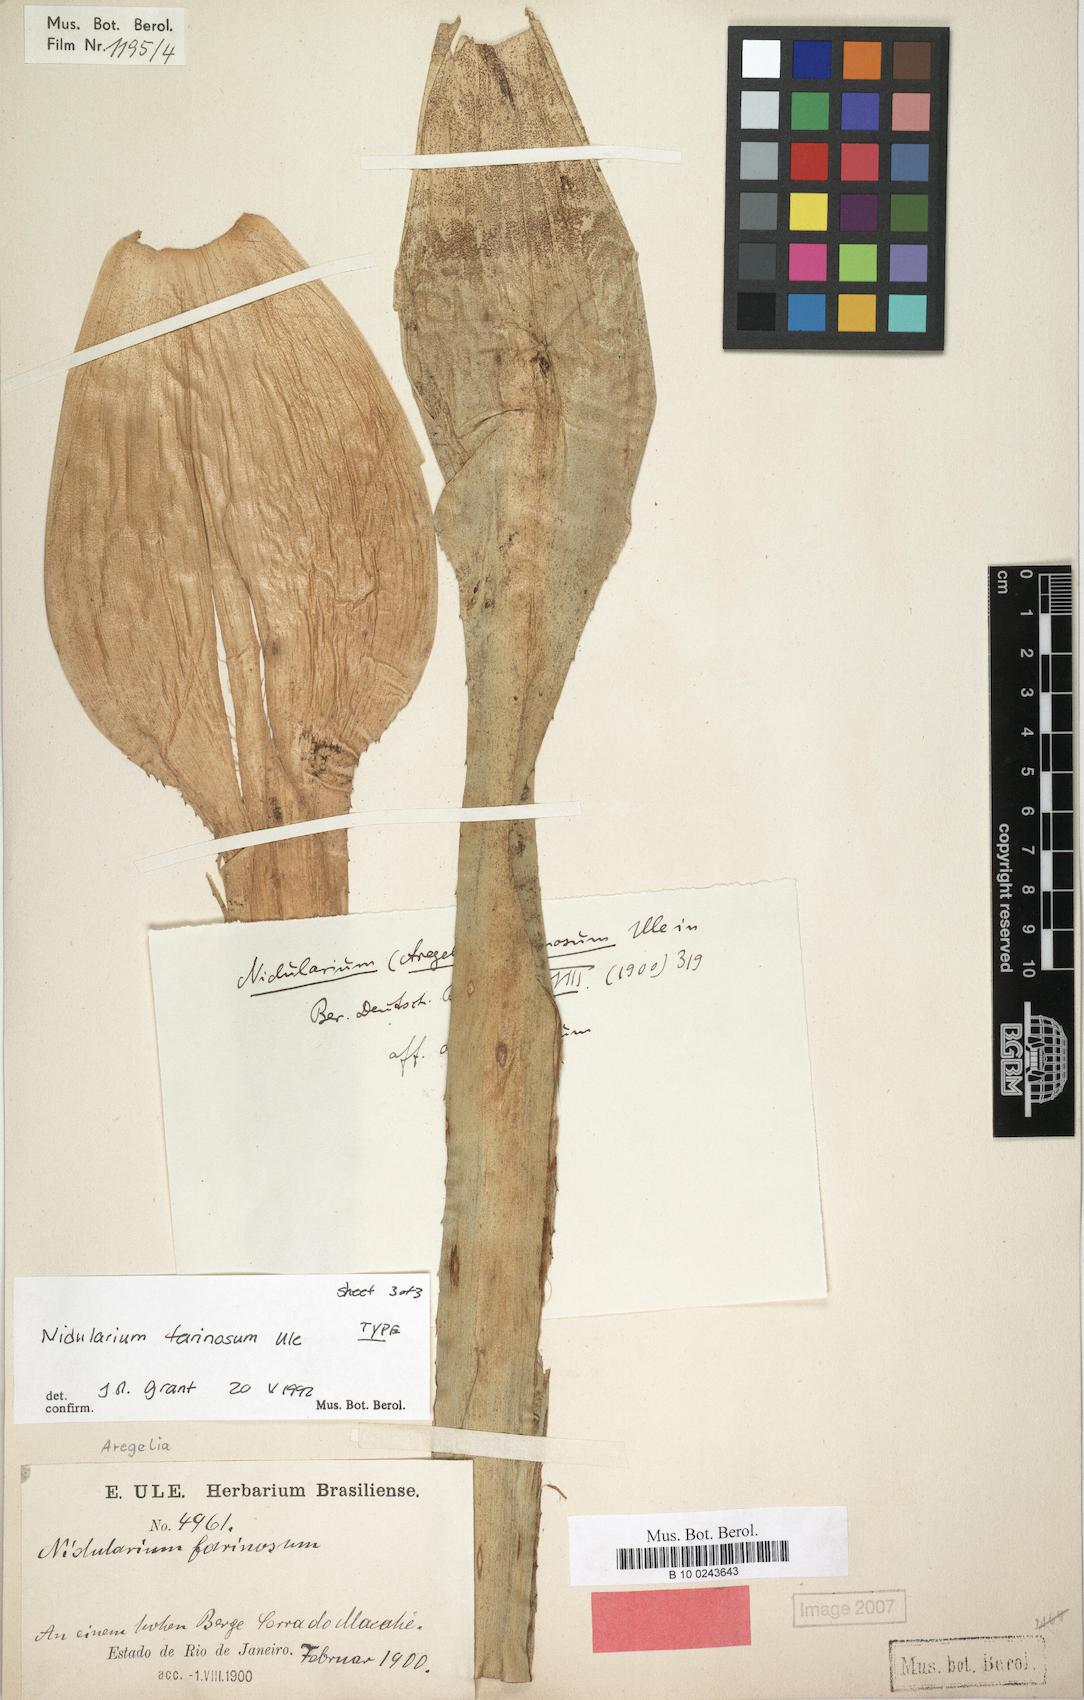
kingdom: Plantae
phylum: Tracheophyta
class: Liliopsida
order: Poales
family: Bromeliaceae
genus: Neoregelia
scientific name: Neoregelia farinosa
